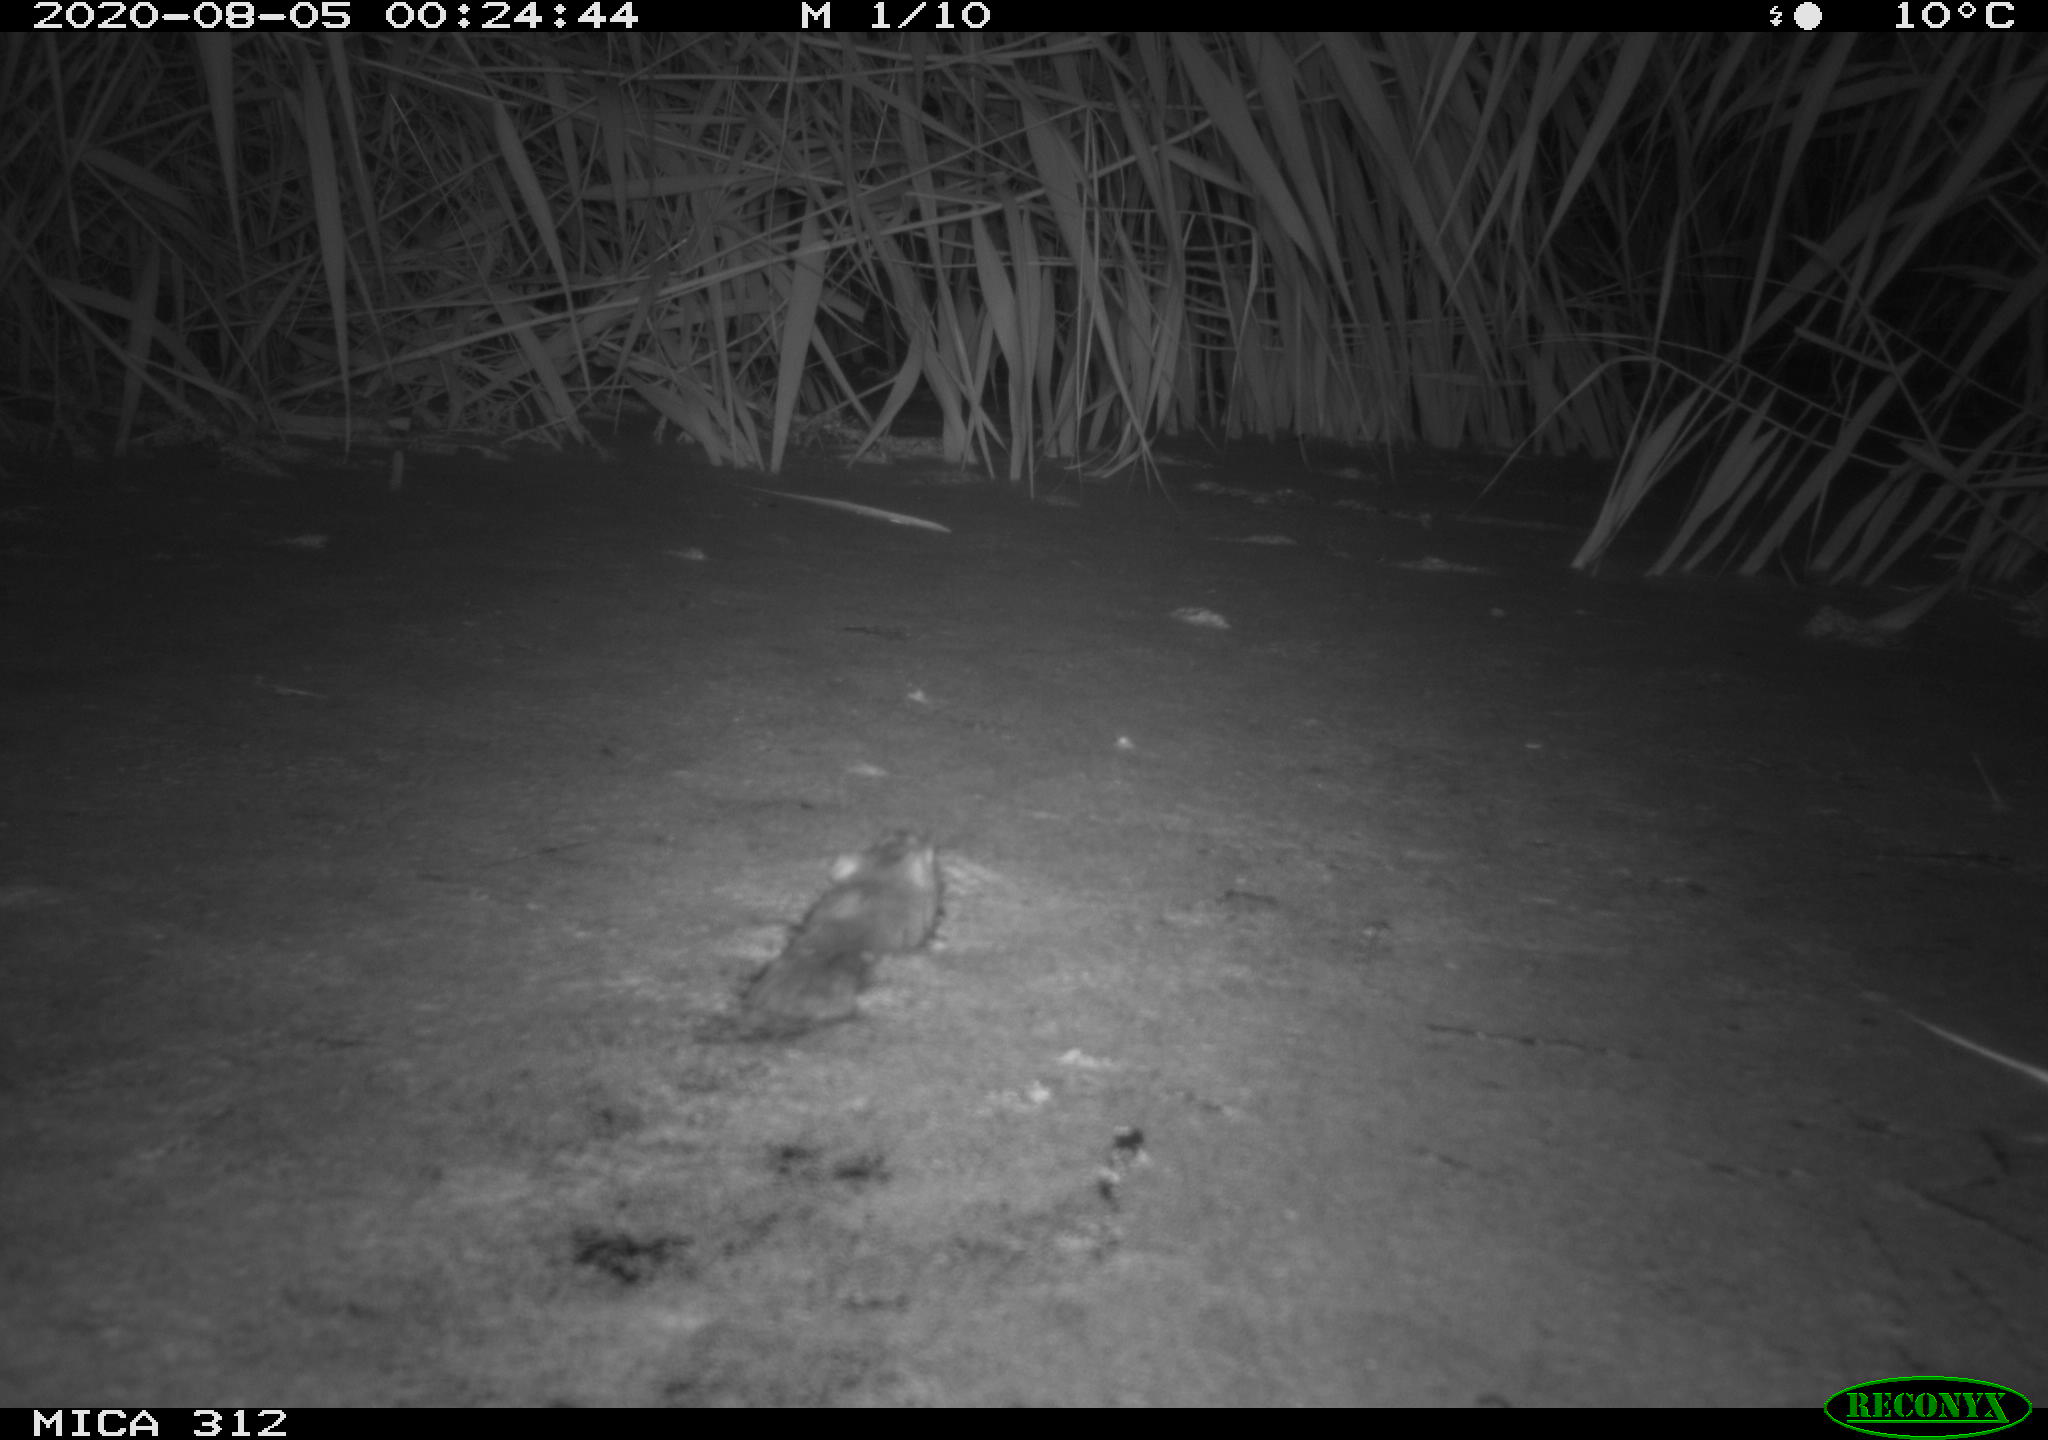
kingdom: Animalia
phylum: Chordata
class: Mammalia
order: Rodentia
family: Cricetidae
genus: Ondatra
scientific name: Ondatra zibethicus
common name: Muskrat
